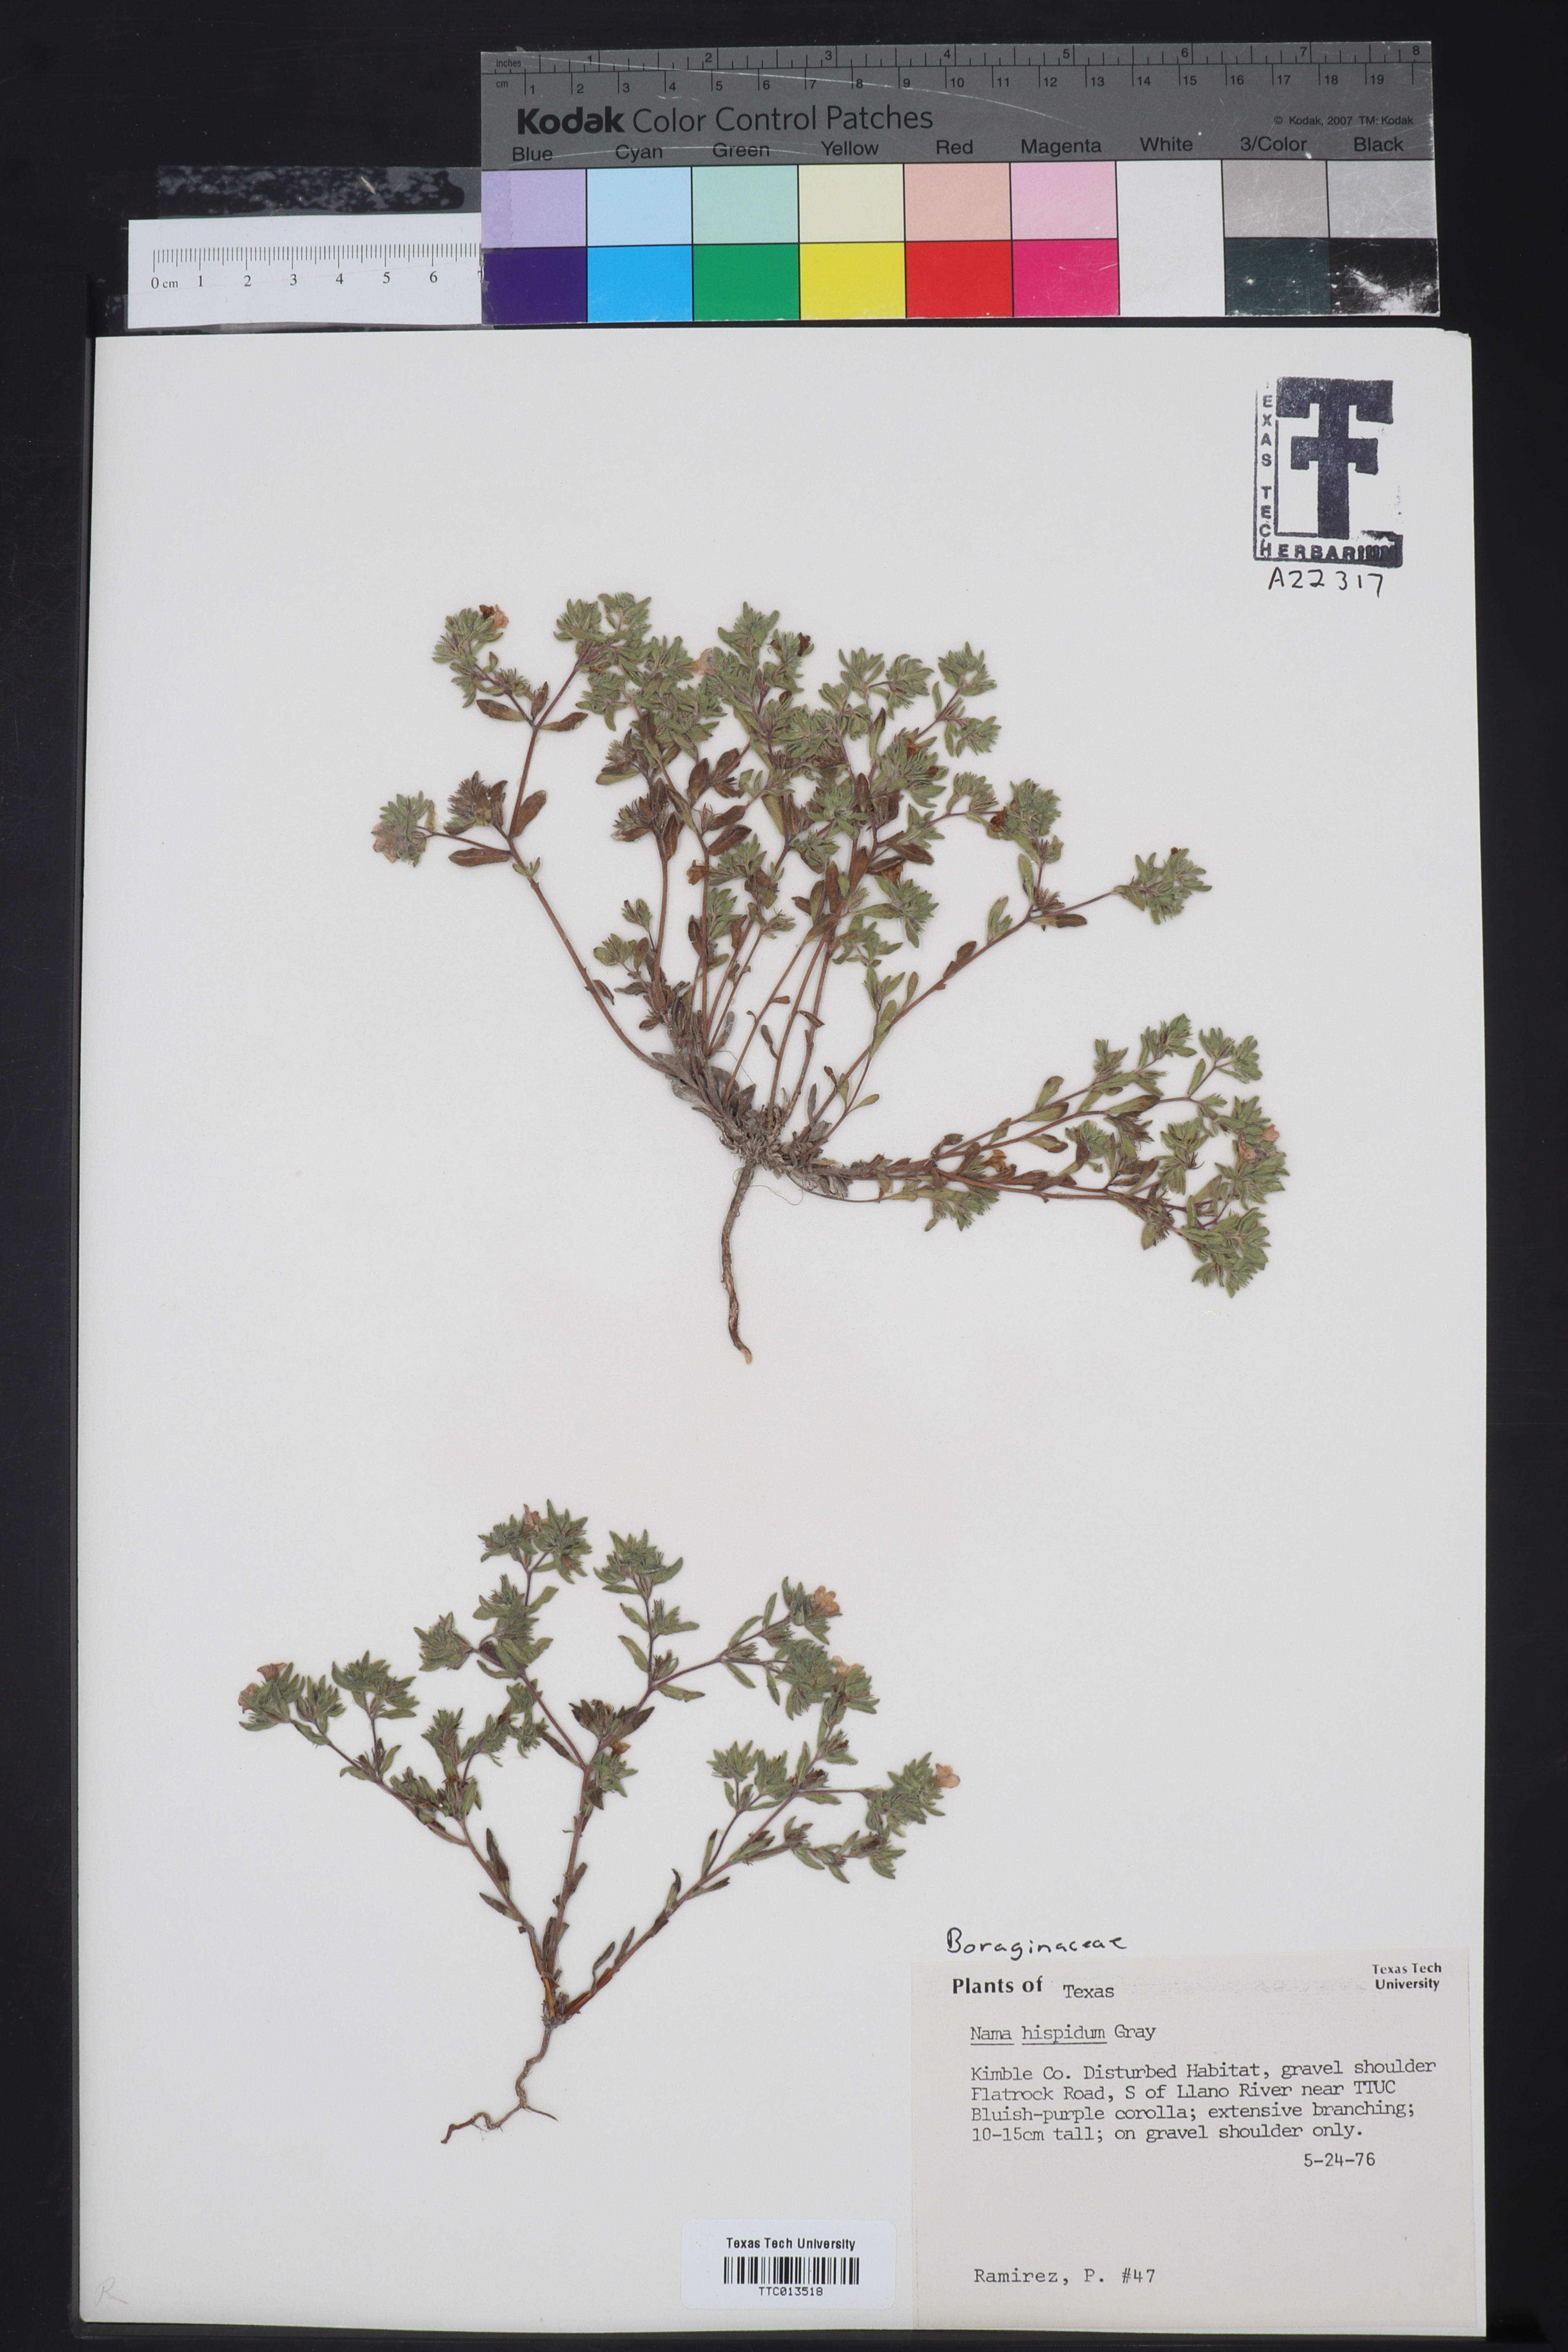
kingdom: Plantae
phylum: Tracheophyta
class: Magnoliopsida
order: Boraginales
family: Namaceae
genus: Nama
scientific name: Nama hispida
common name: Bristly nama
